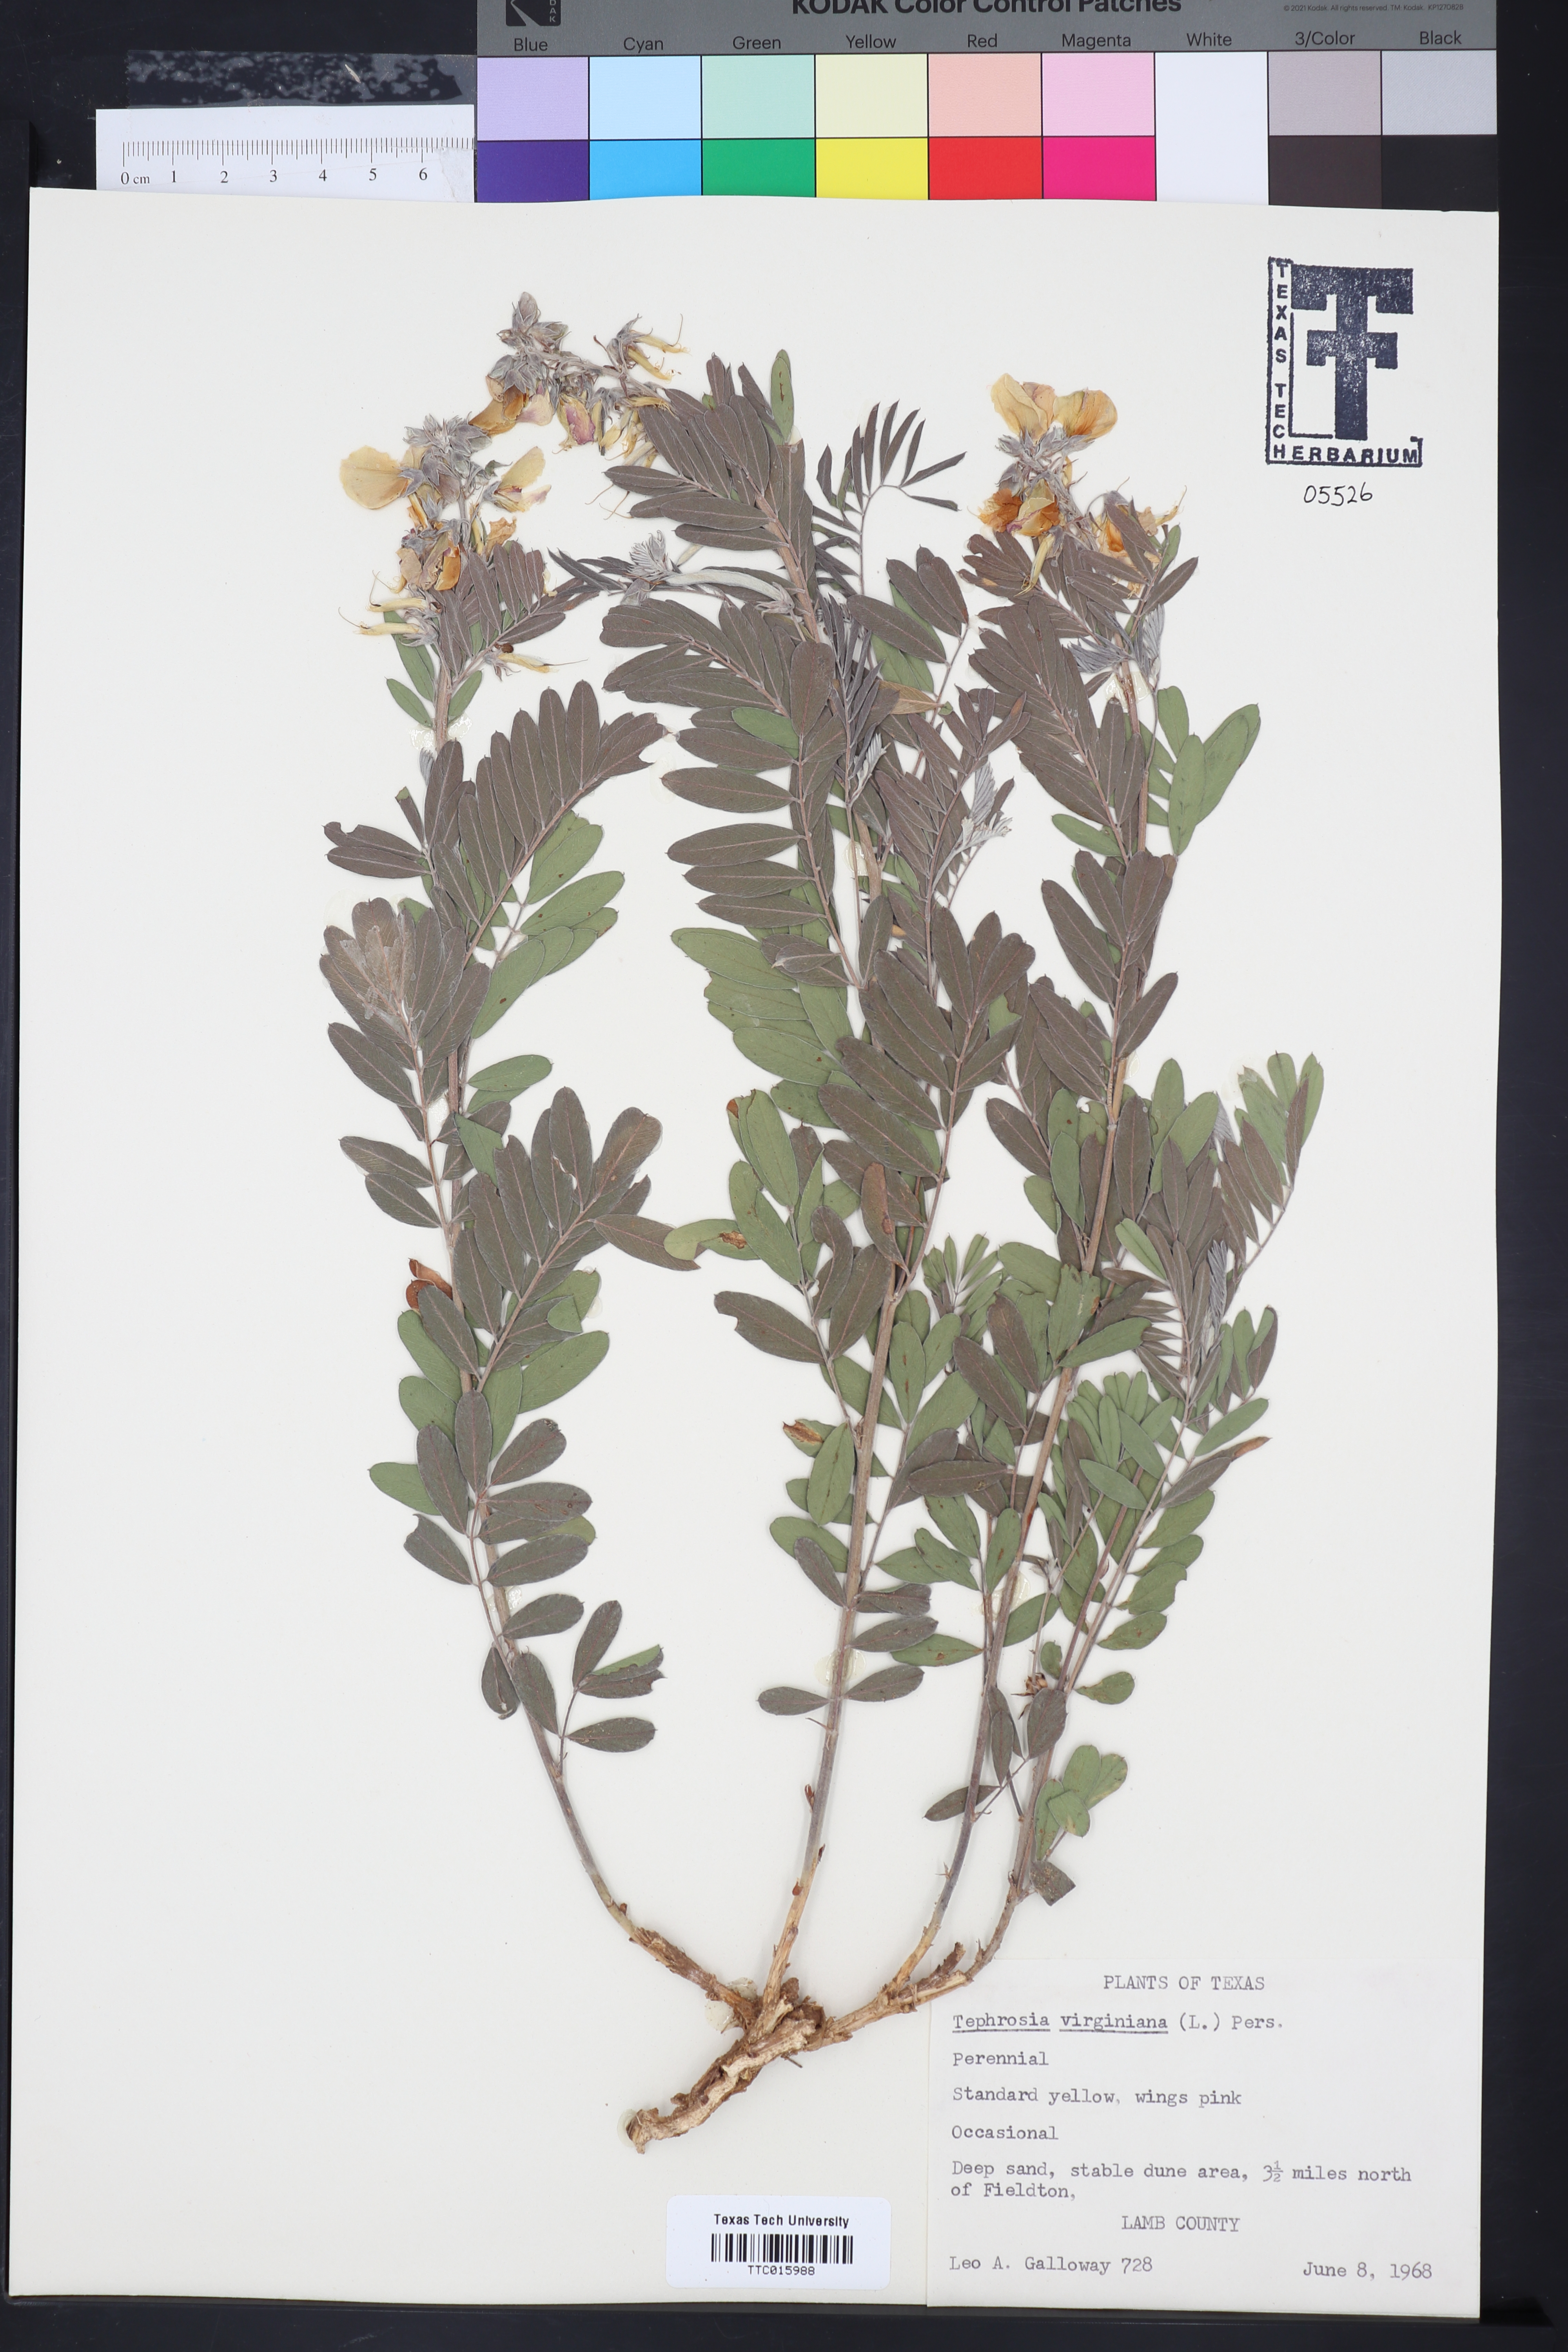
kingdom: Plantae
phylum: Tracheophyta
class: Magnoliopsida
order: Fabales
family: Fabaceae
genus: Tephrosia
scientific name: Tephrosia virginiana
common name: Rabbit-pea
